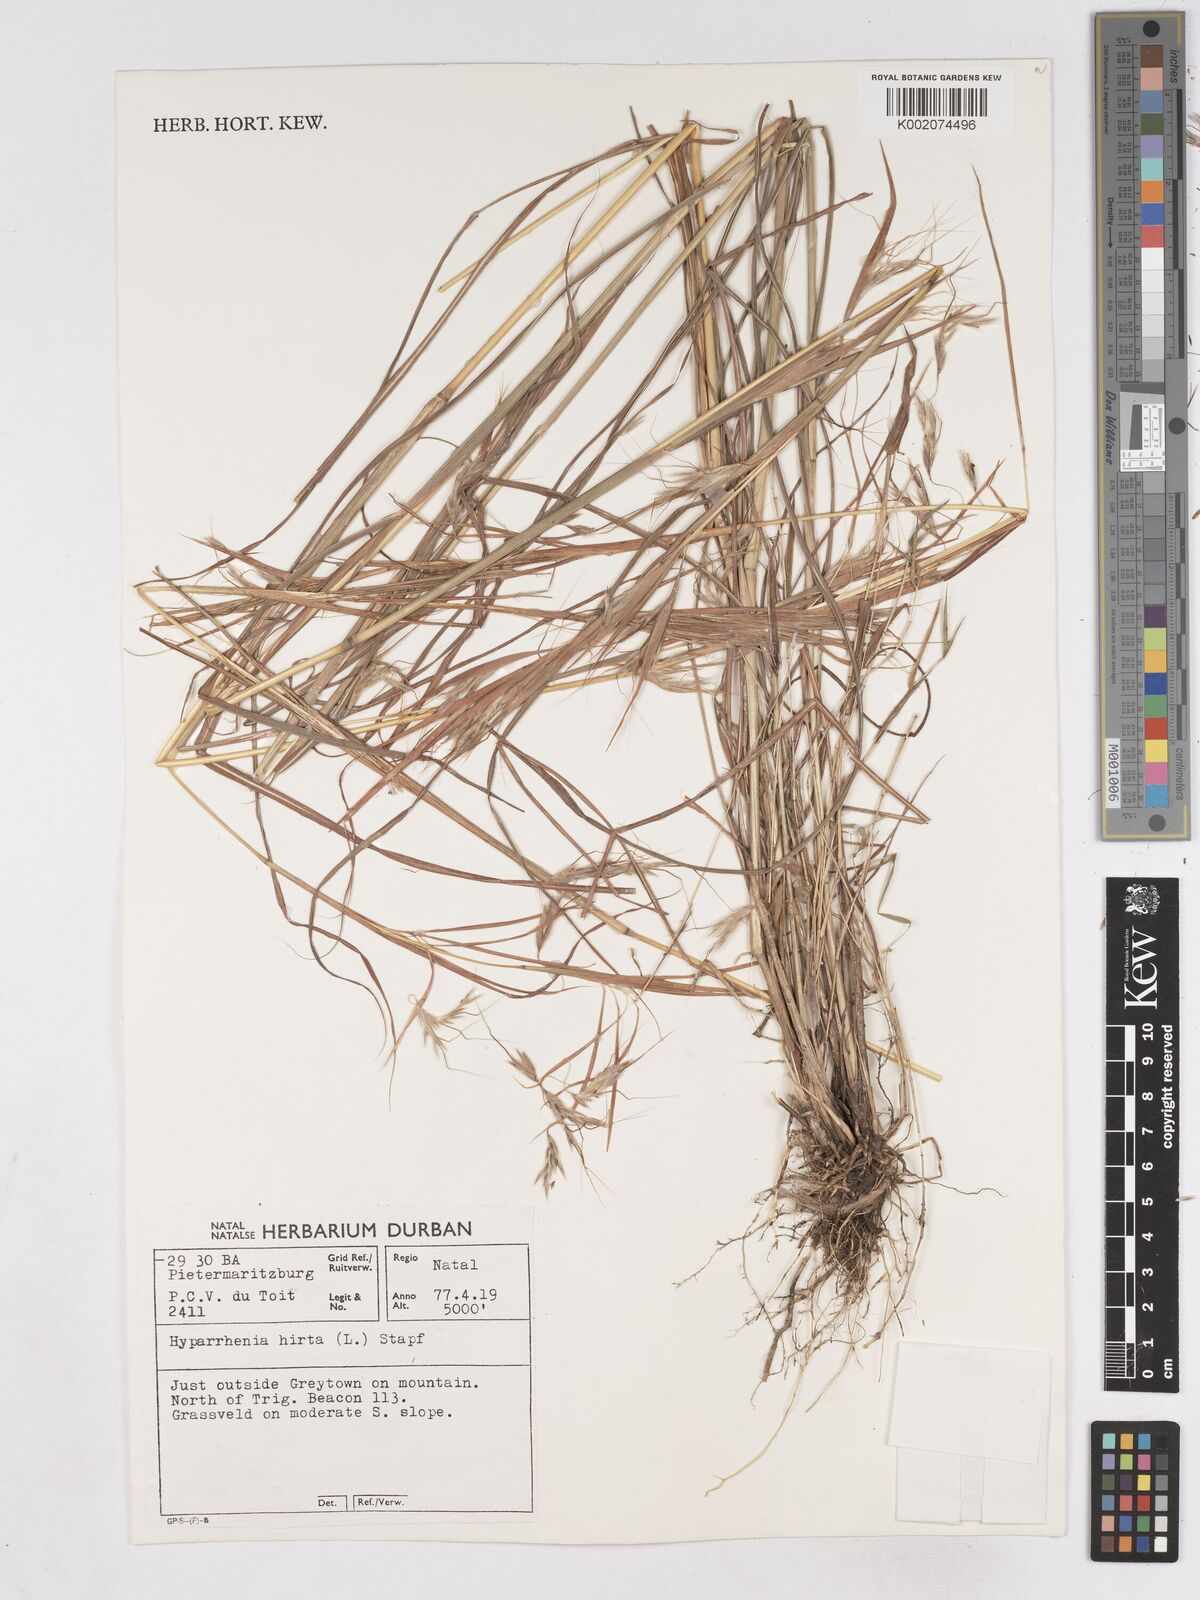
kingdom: Plantae
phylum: Tracheophyta
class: Liliopsida
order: Poales
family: Poaceae
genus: Hyparrhenia
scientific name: Hyparrhenia hirta
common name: Thatching grass
